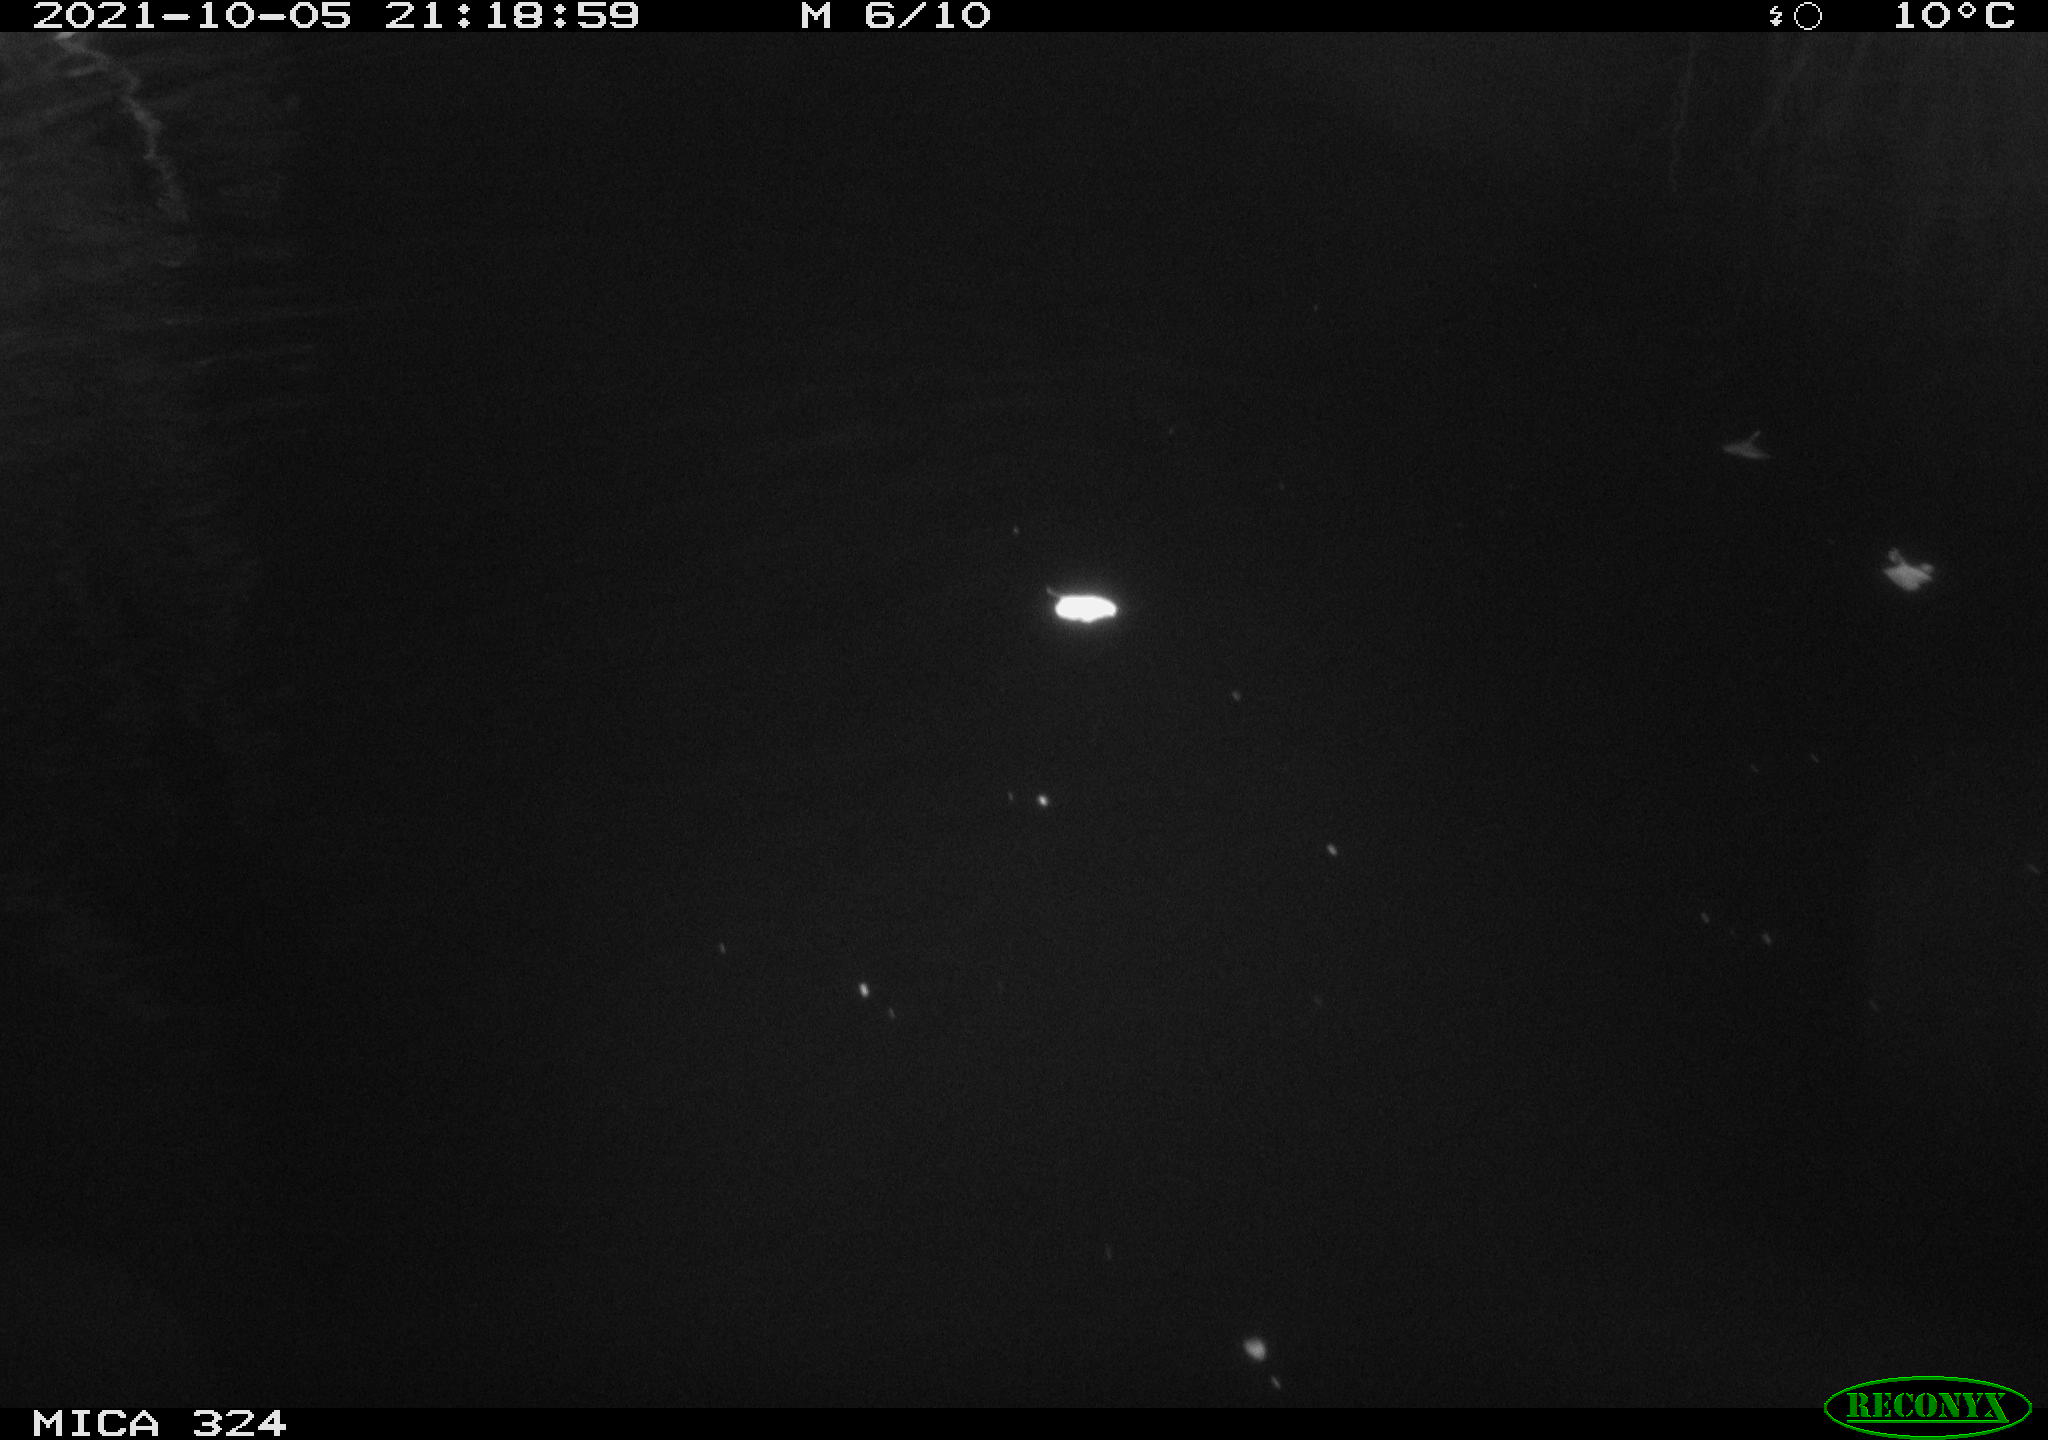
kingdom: Animalia
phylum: Chordata
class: Mammalia
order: Rodentia
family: Cricetidae
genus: Ondatra
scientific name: Ondatra zibethicus
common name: Muskrat
